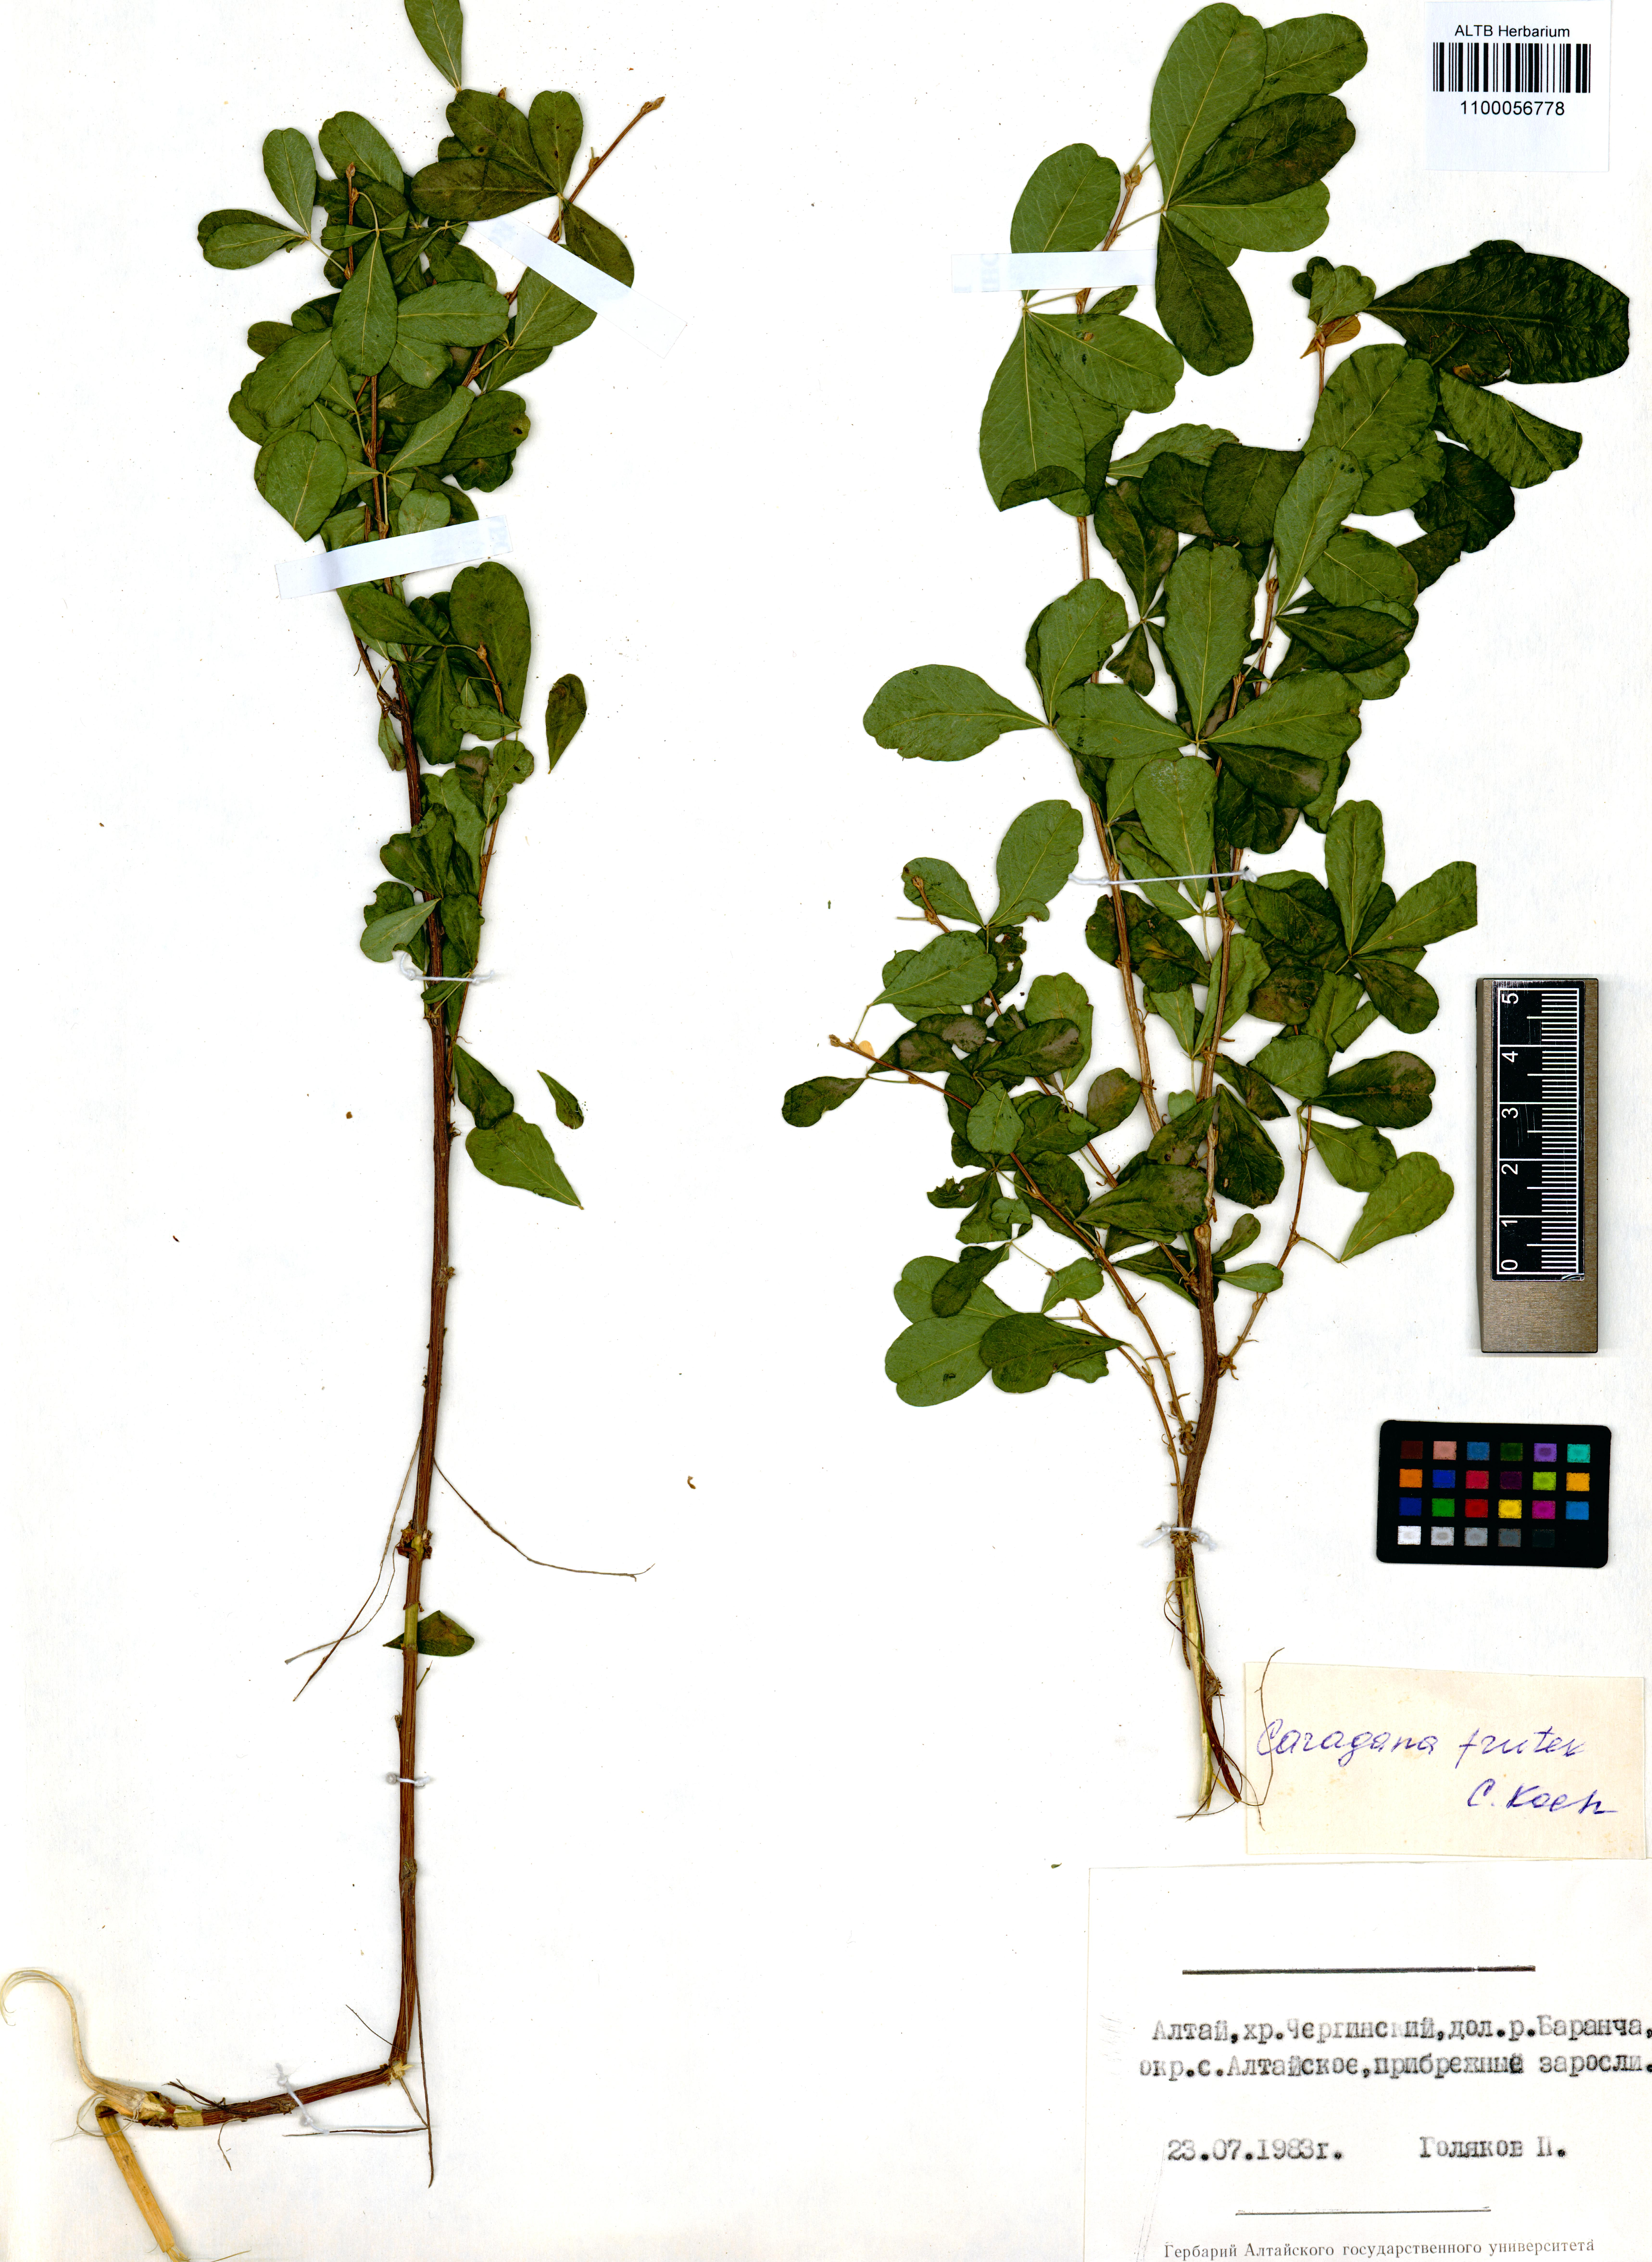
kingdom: Plantae
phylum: Tracheophyta
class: Magnoliopsida
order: Fabales
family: Fabaceae
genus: Caragana
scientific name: Caragana frutex
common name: Russian peashrub
